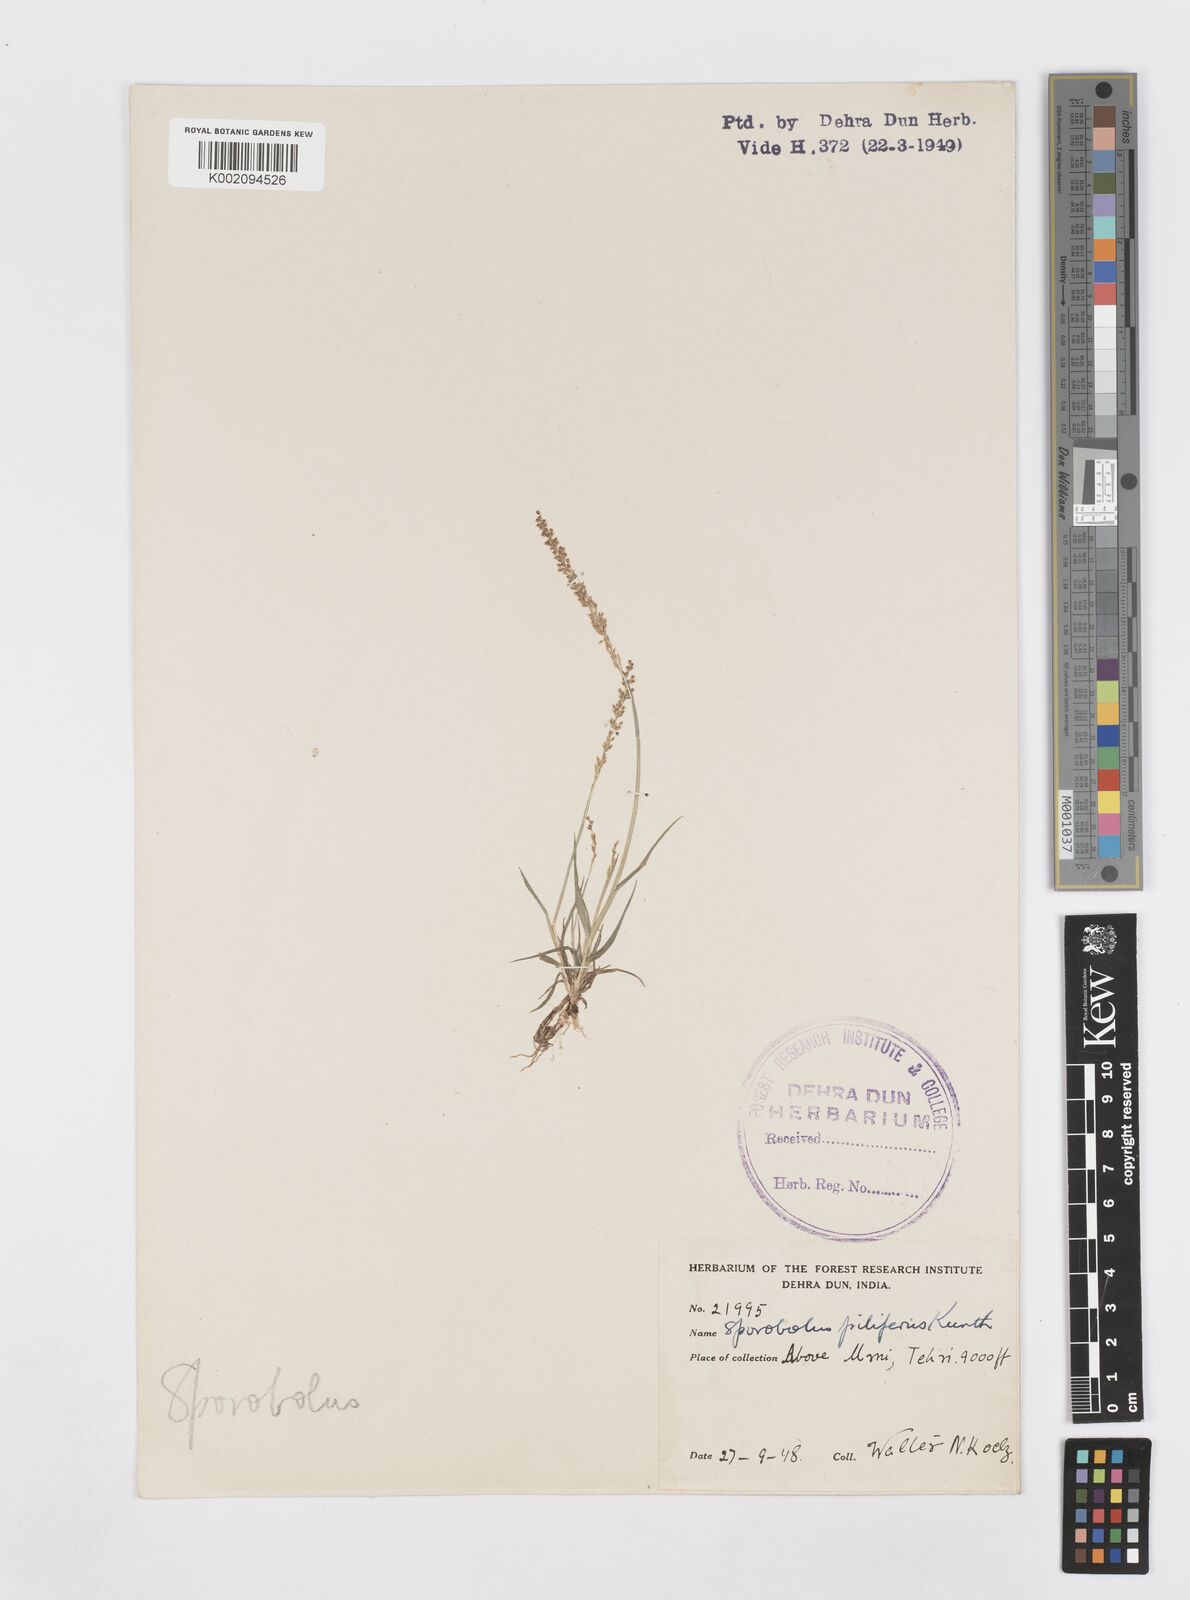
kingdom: Plantae
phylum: Tracheophyta
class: Liliopsida
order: Poales
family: Poaceae
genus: Sporobolus
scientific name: Sporobolus pilifer
